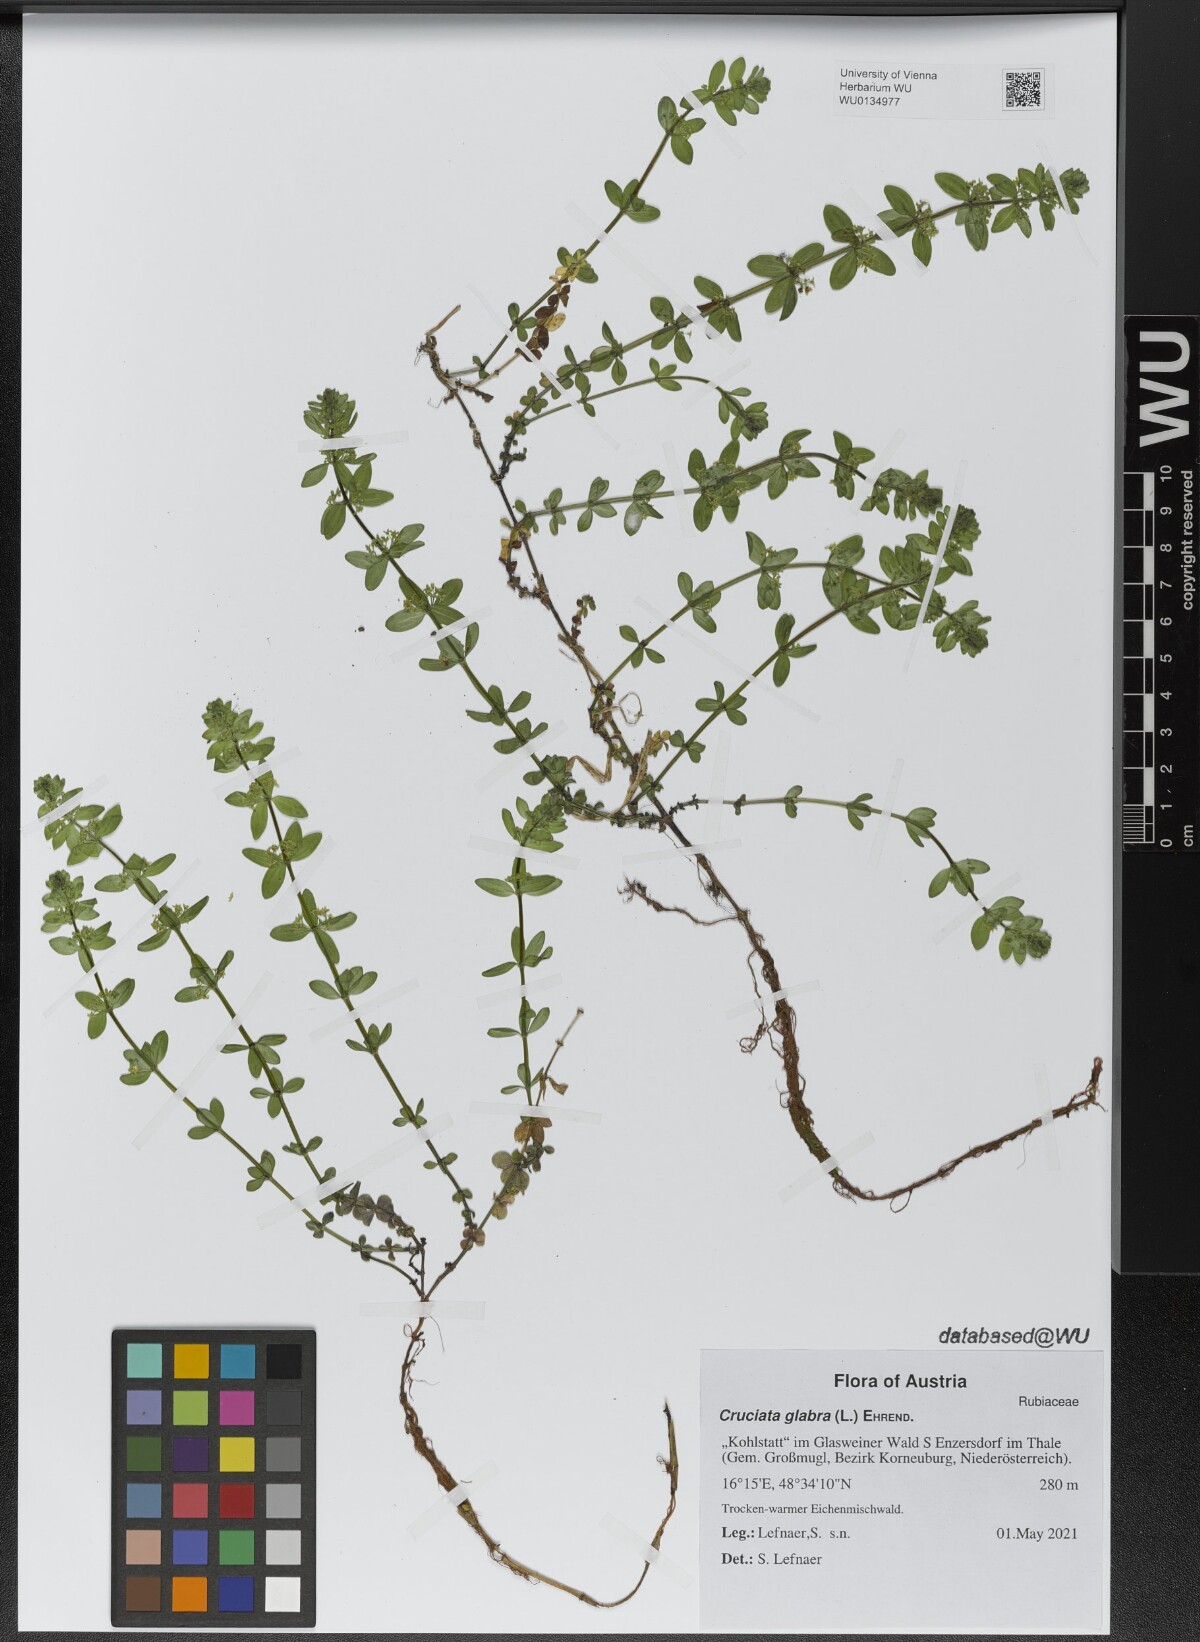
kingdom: Plantae
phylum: Tracheophyta
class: Magnoliopsida
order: Gentianales
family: Rubiaceae
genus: Cruciata
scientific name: Cruciata glabra
